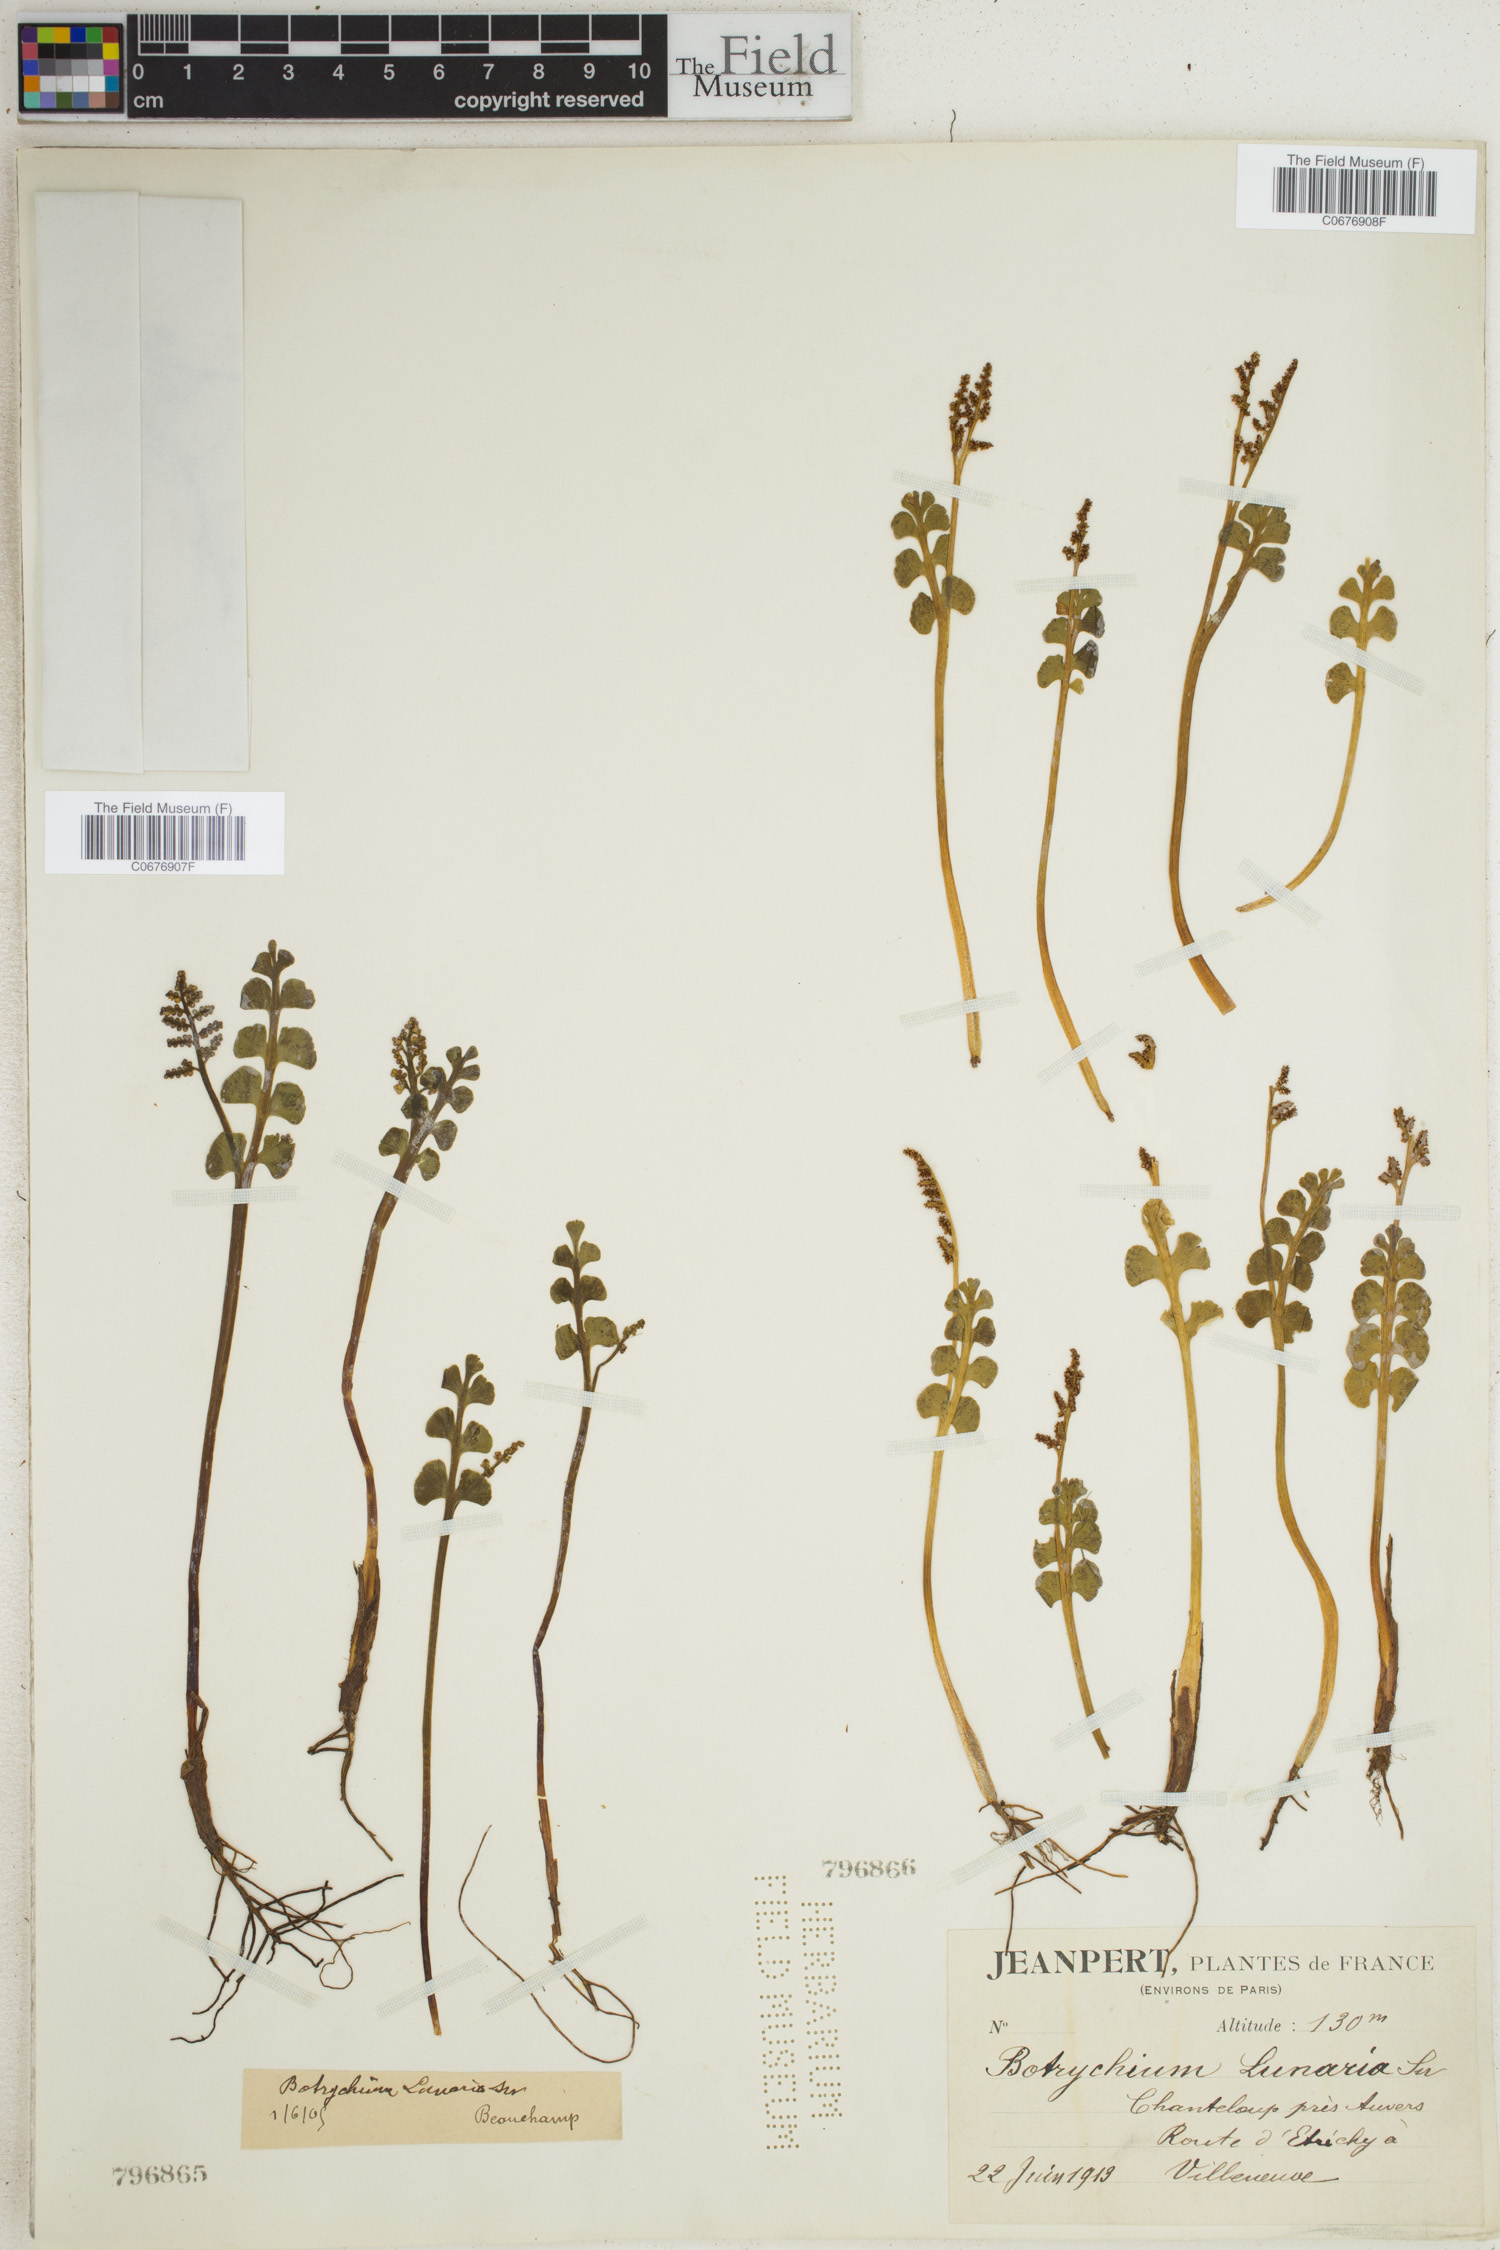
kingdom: Plantae
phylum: Tracheophyta
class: Polypodiopsida
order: Ophioglossales
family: Ophioglossaceae
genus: Botrychium
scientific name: Botrychium lunaria
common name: Moonwort
